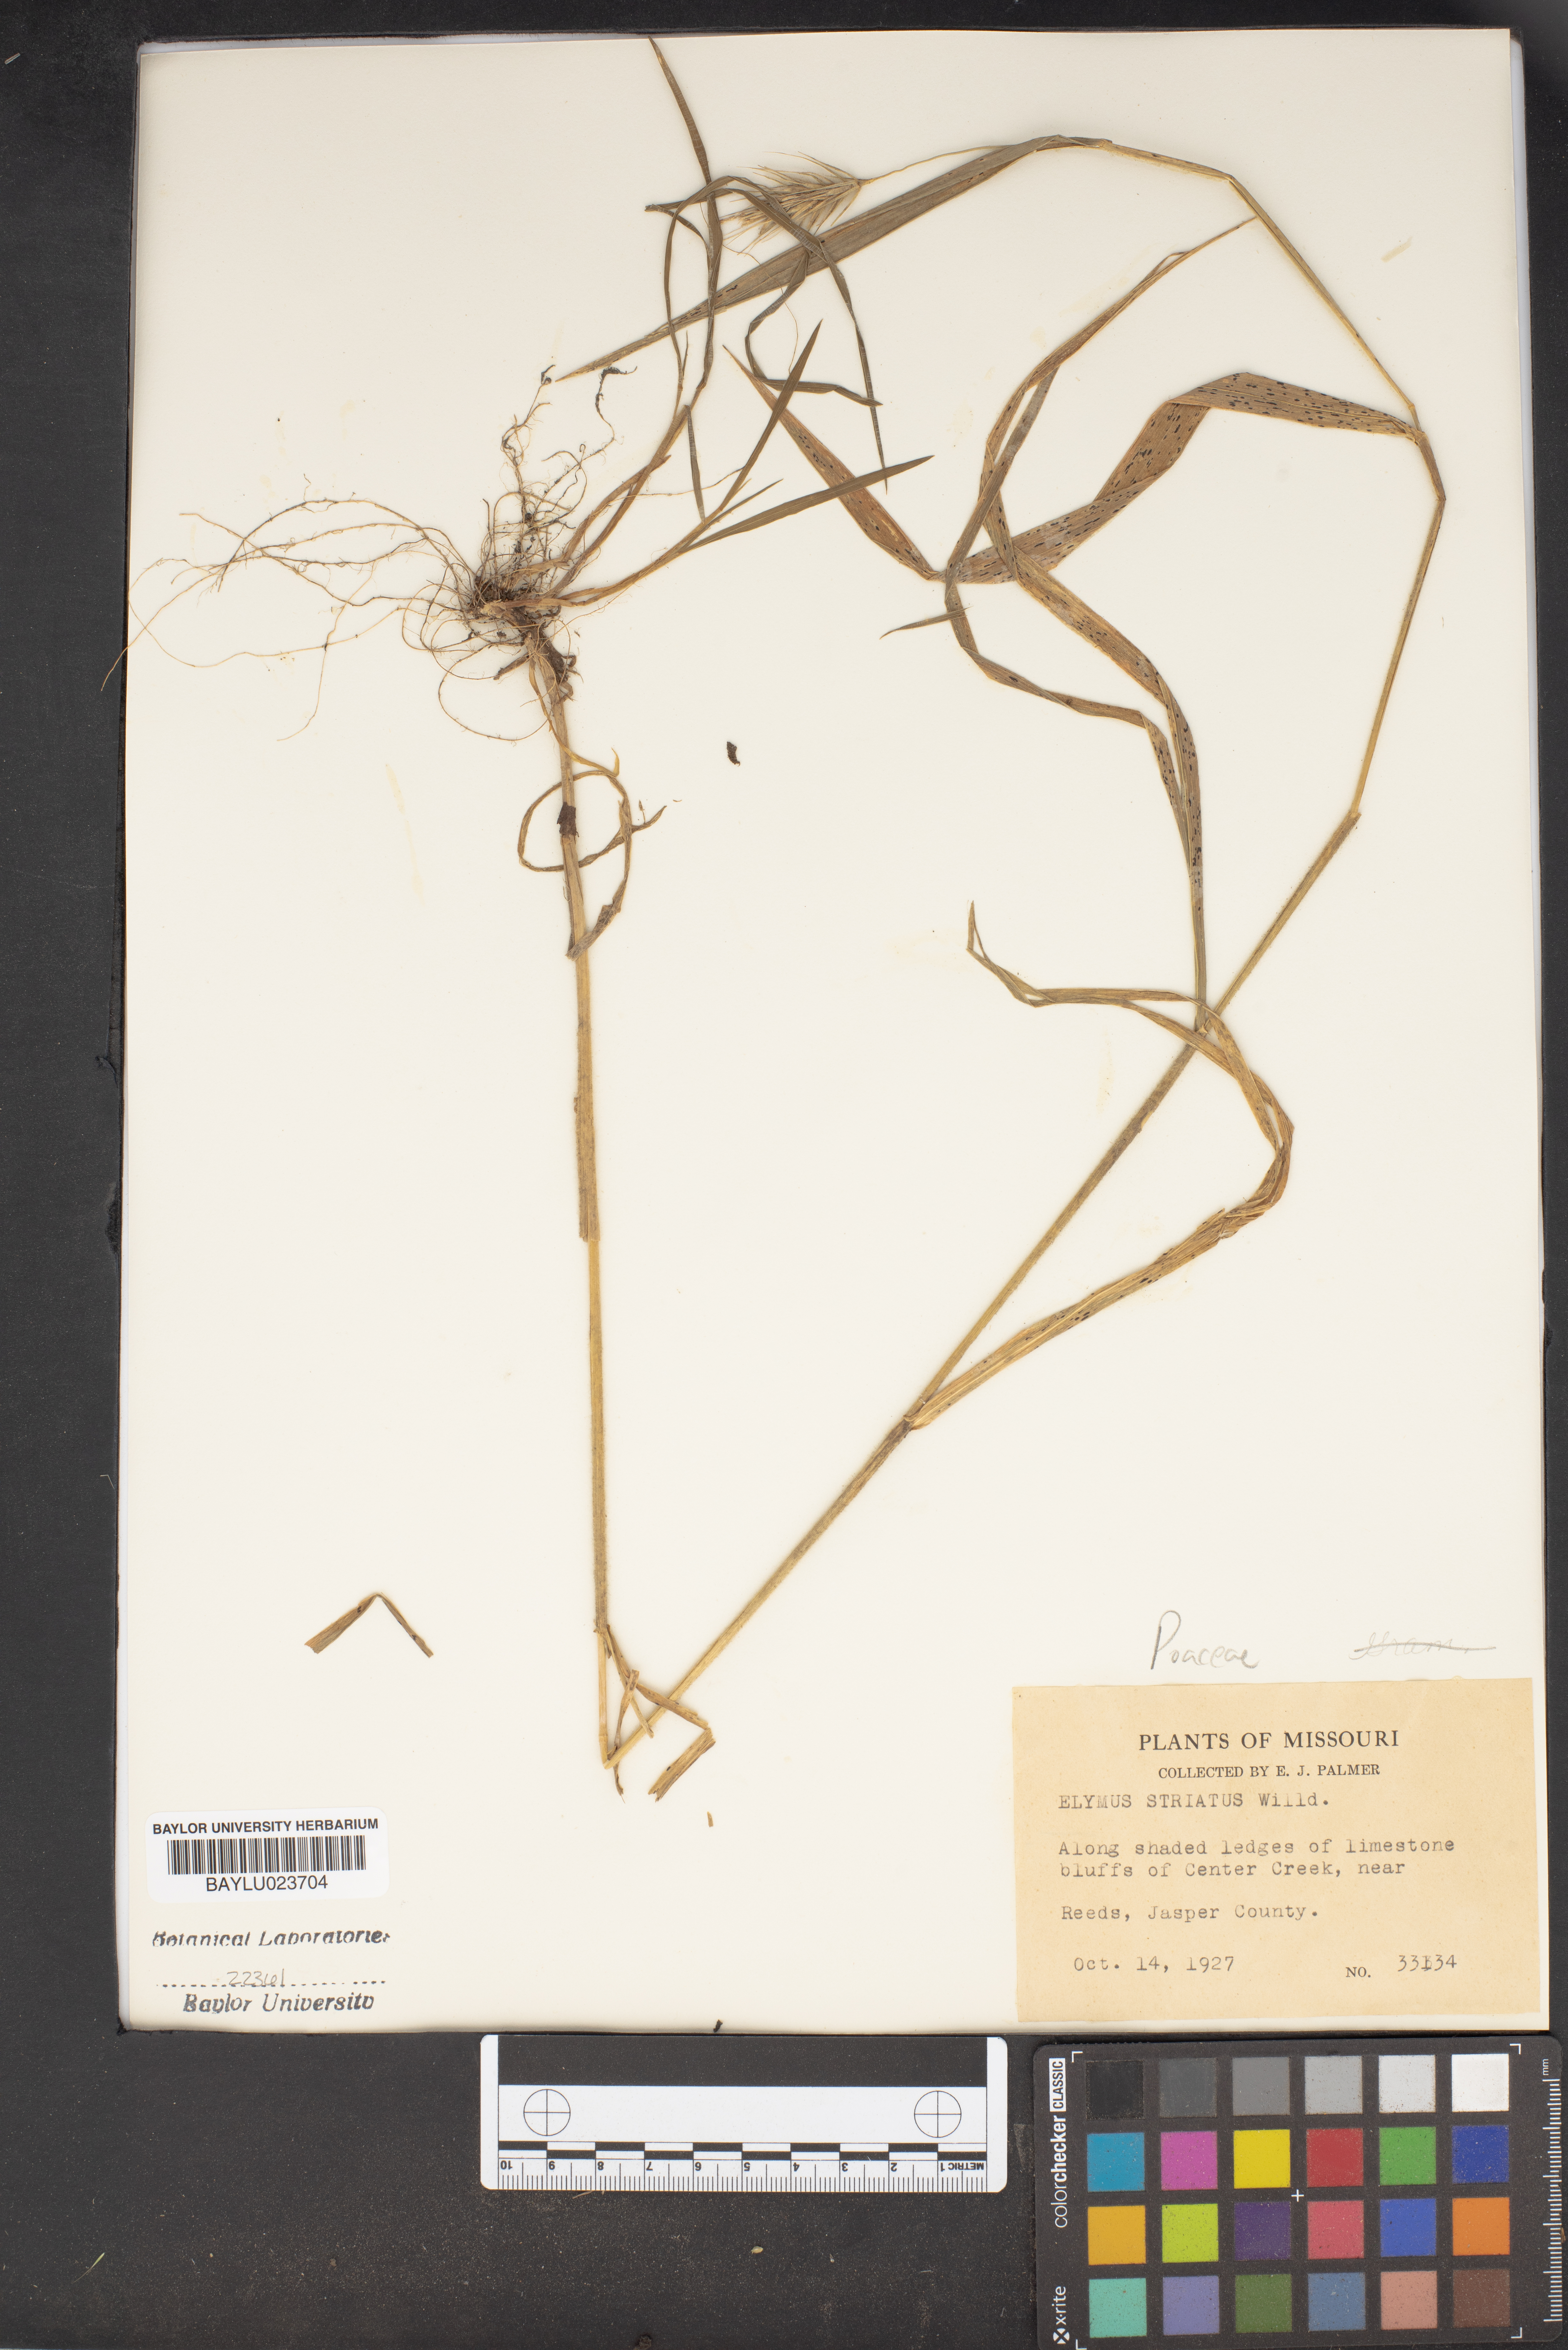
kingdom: Plantae
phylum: Tracheophyta
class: Liliopsida
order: Poales
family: Poaceae
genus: Elymus
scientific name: Elymus virginicus
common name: Common eastern wildrye
